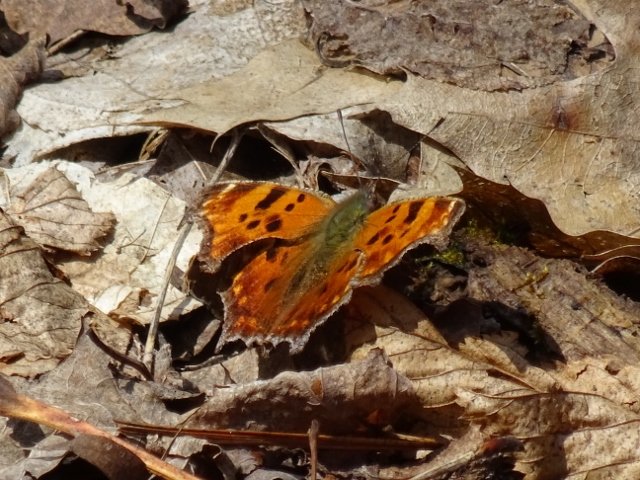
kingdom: Animalia
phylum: Arthropoda
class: Insecta
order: Lepidoptera
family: Nymphalidae
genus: Polygonia
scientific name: Polygonia comma
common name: Eastern Comma
